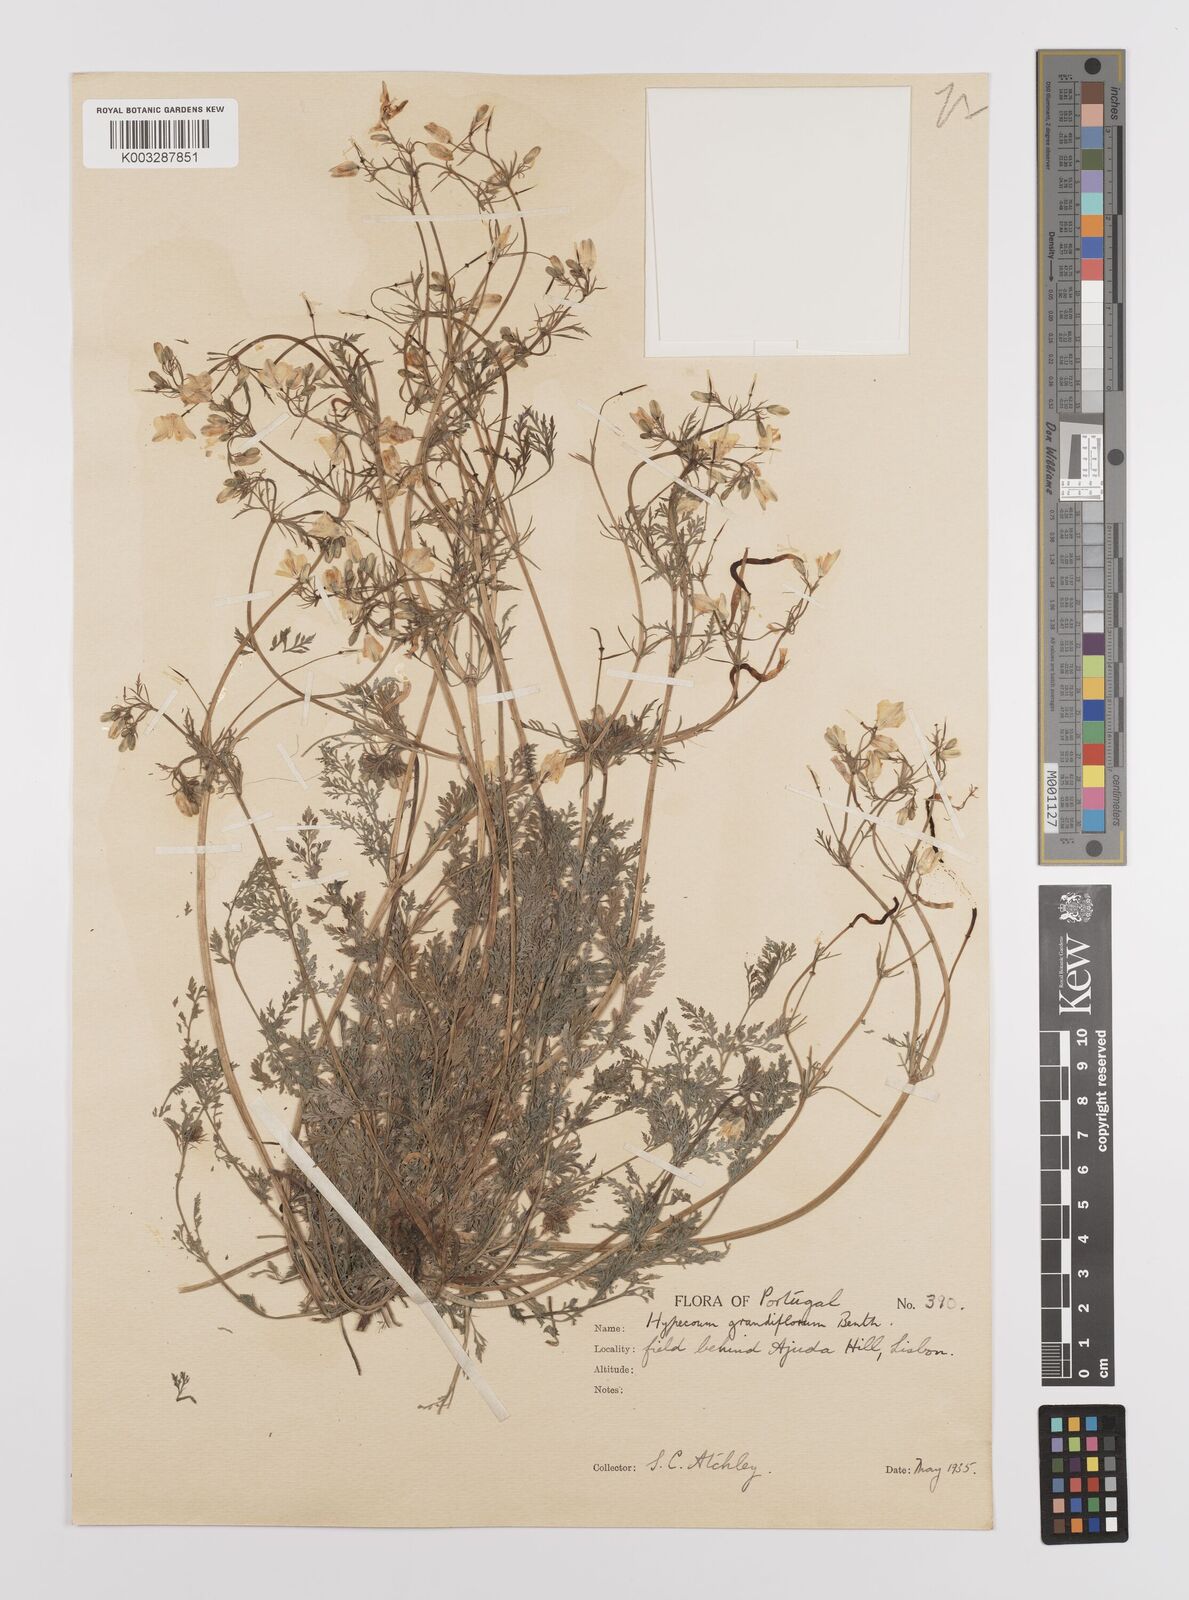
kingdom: Plantae
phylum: Tracheophyta
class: Magnoliopsida
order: Ranunculales
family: Papaveraceae
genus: Hypecoum
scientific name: Hypecoum imberbe
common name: Sicklefruit hypecoum
